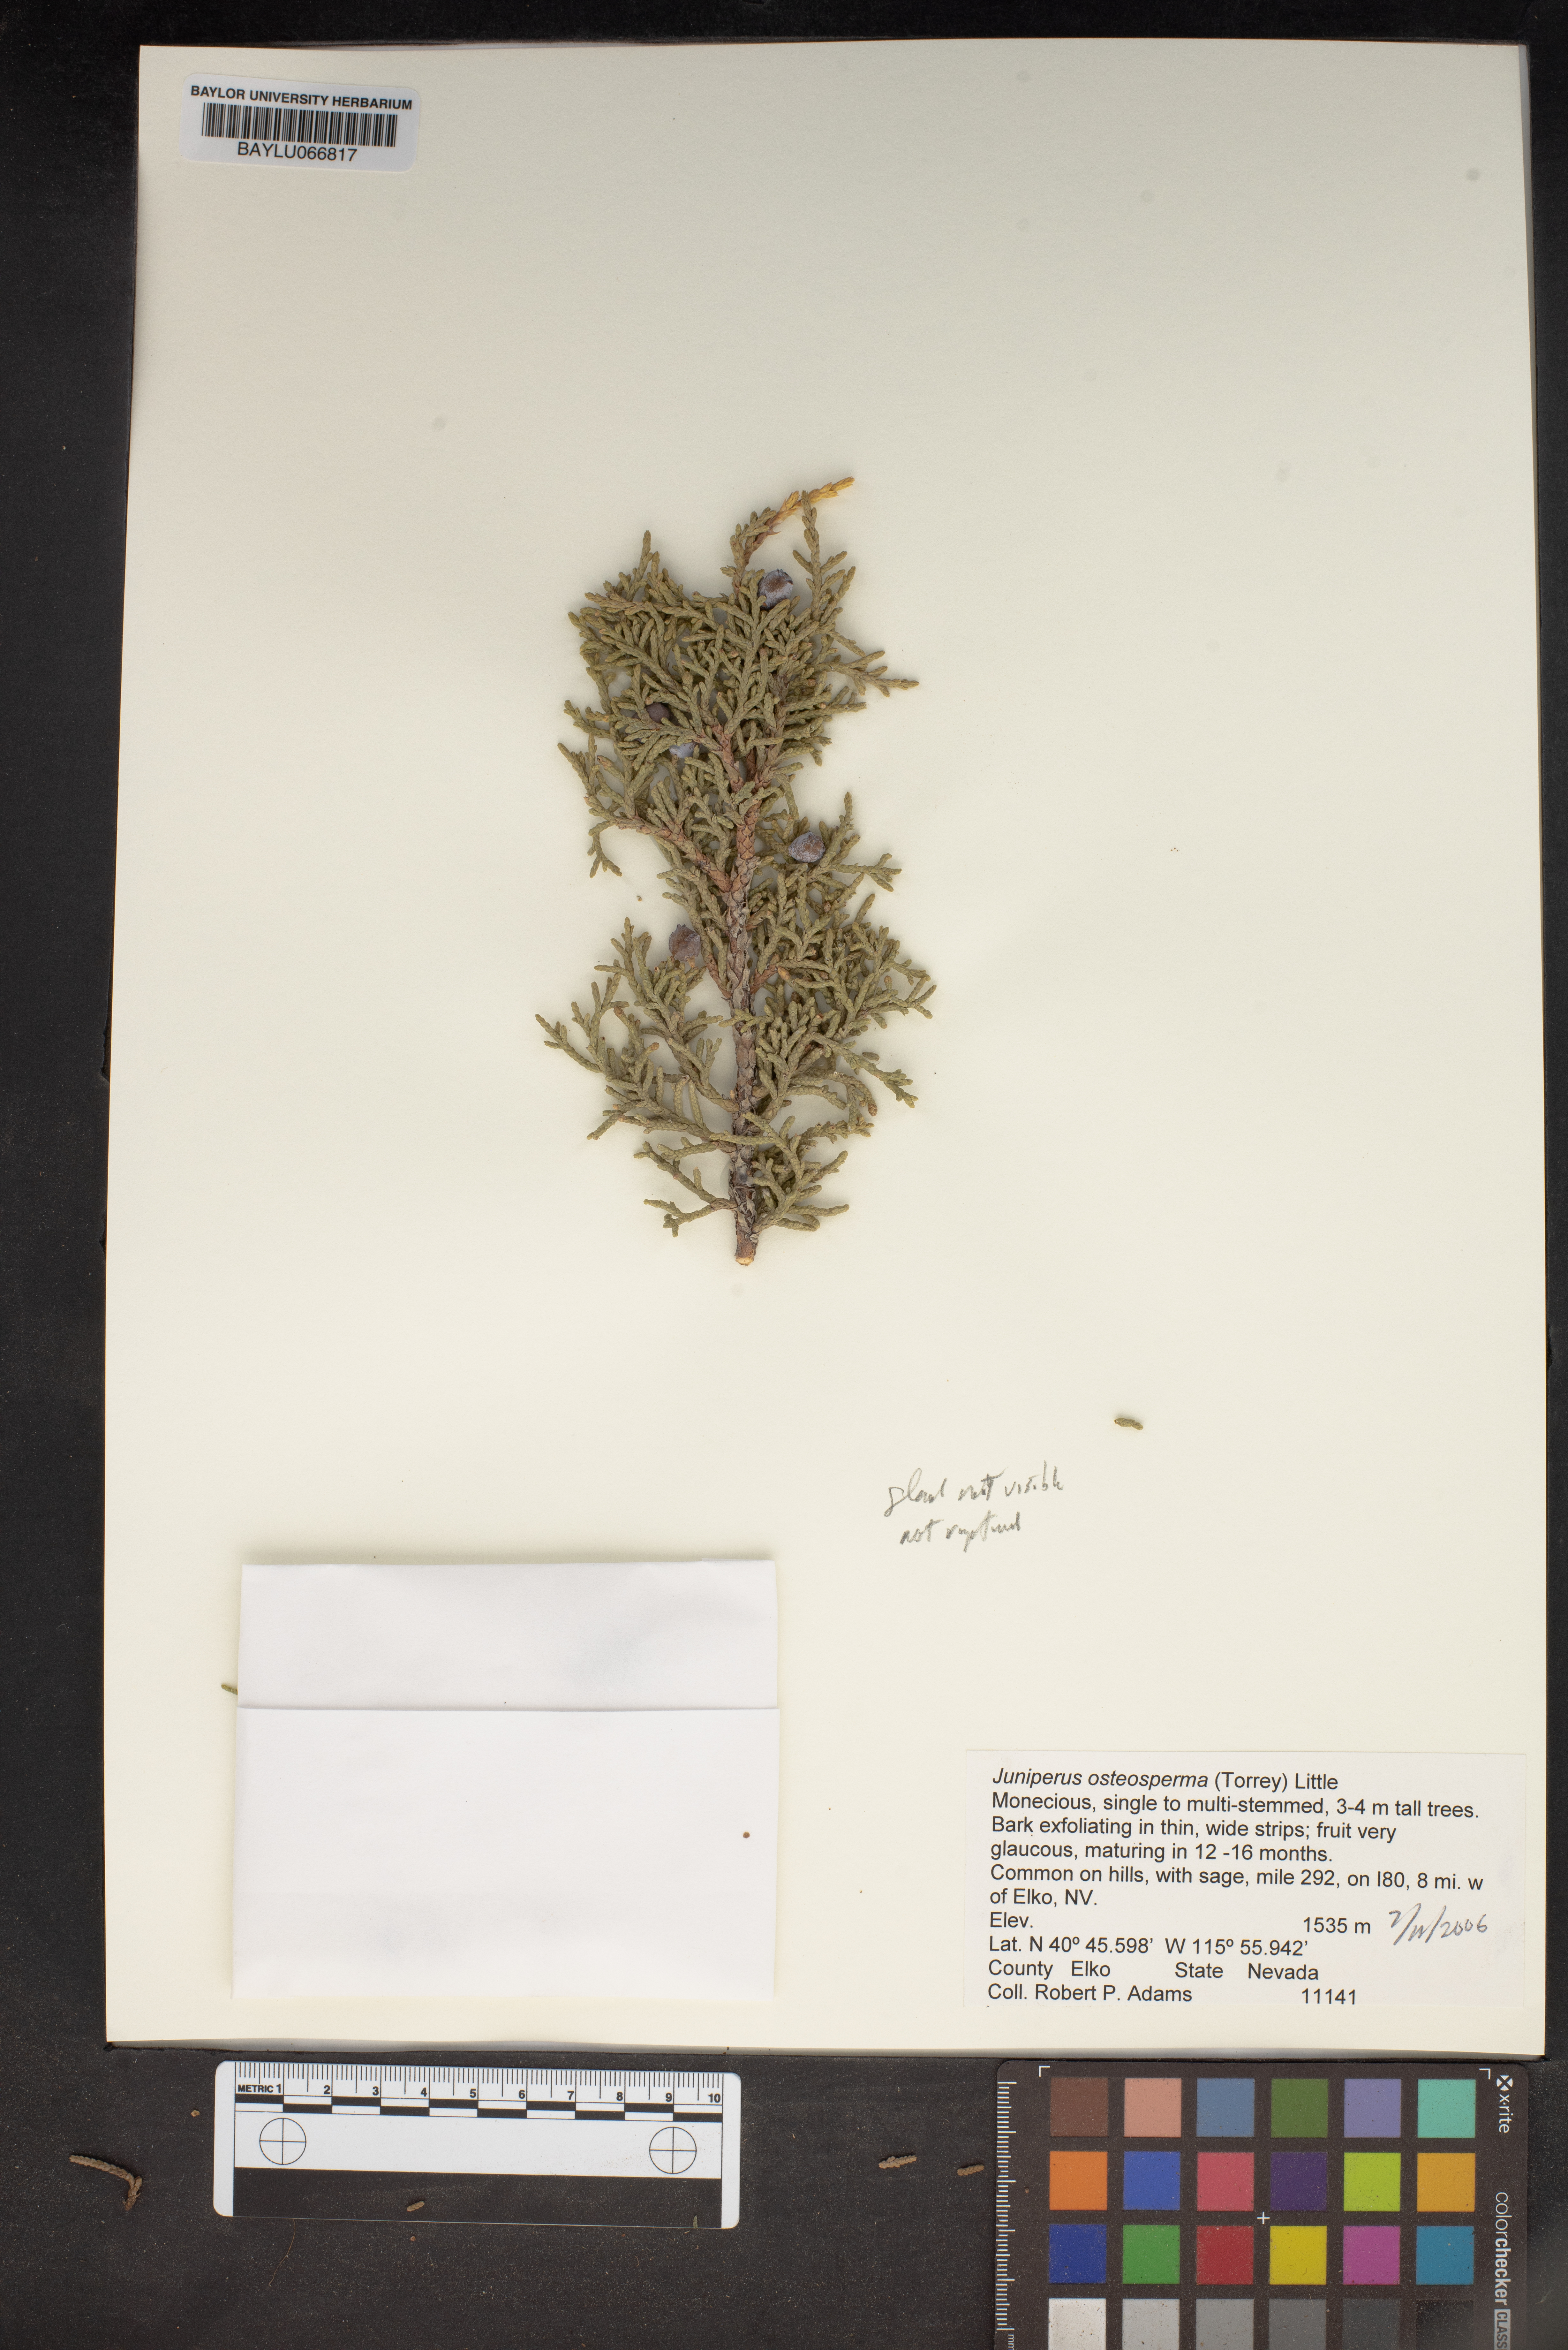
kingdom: Plantae
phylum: Tracheophyta
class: Pinopsida
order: Pinales
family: Cupressaceae
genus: Juniperus
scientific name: Juniperus osteosperma
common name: Utah juniper
